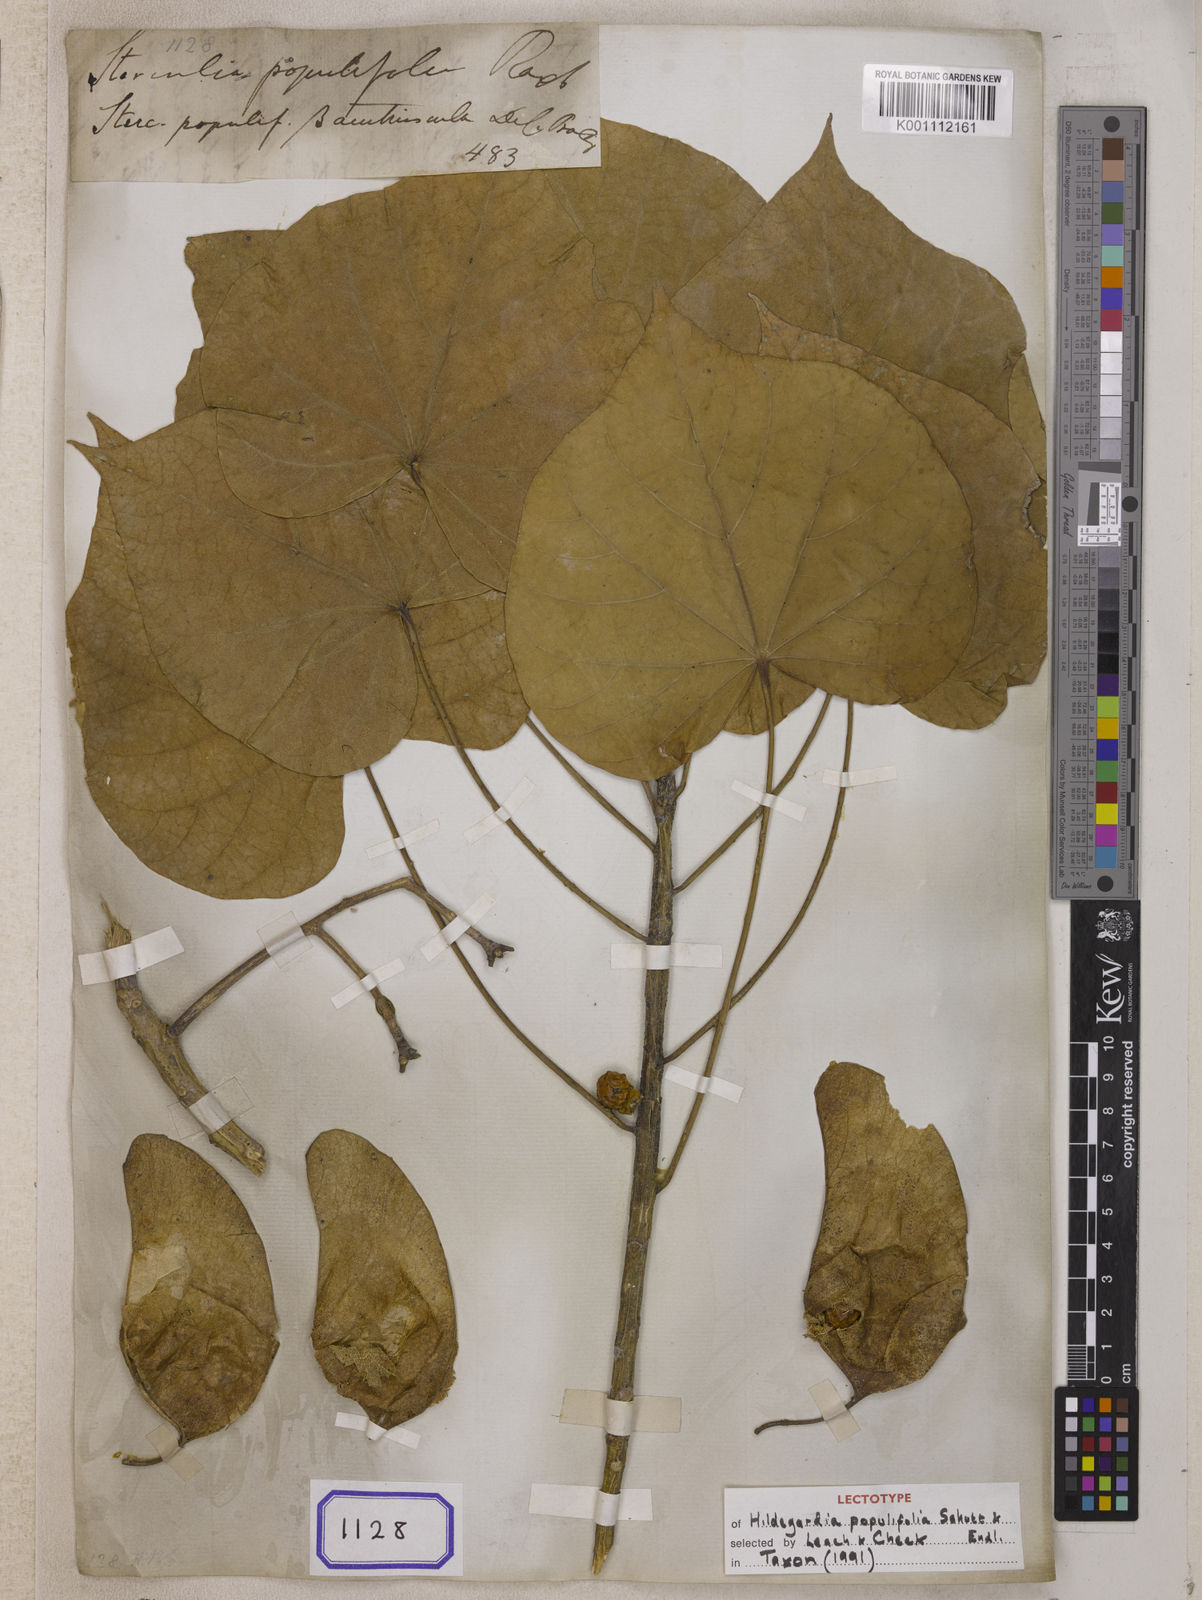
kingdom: Plantae
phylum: Tracheophyta
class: Magnoliopsida
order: Malvales
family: Malvaceae
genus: Sterculia
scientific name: Sterculia
